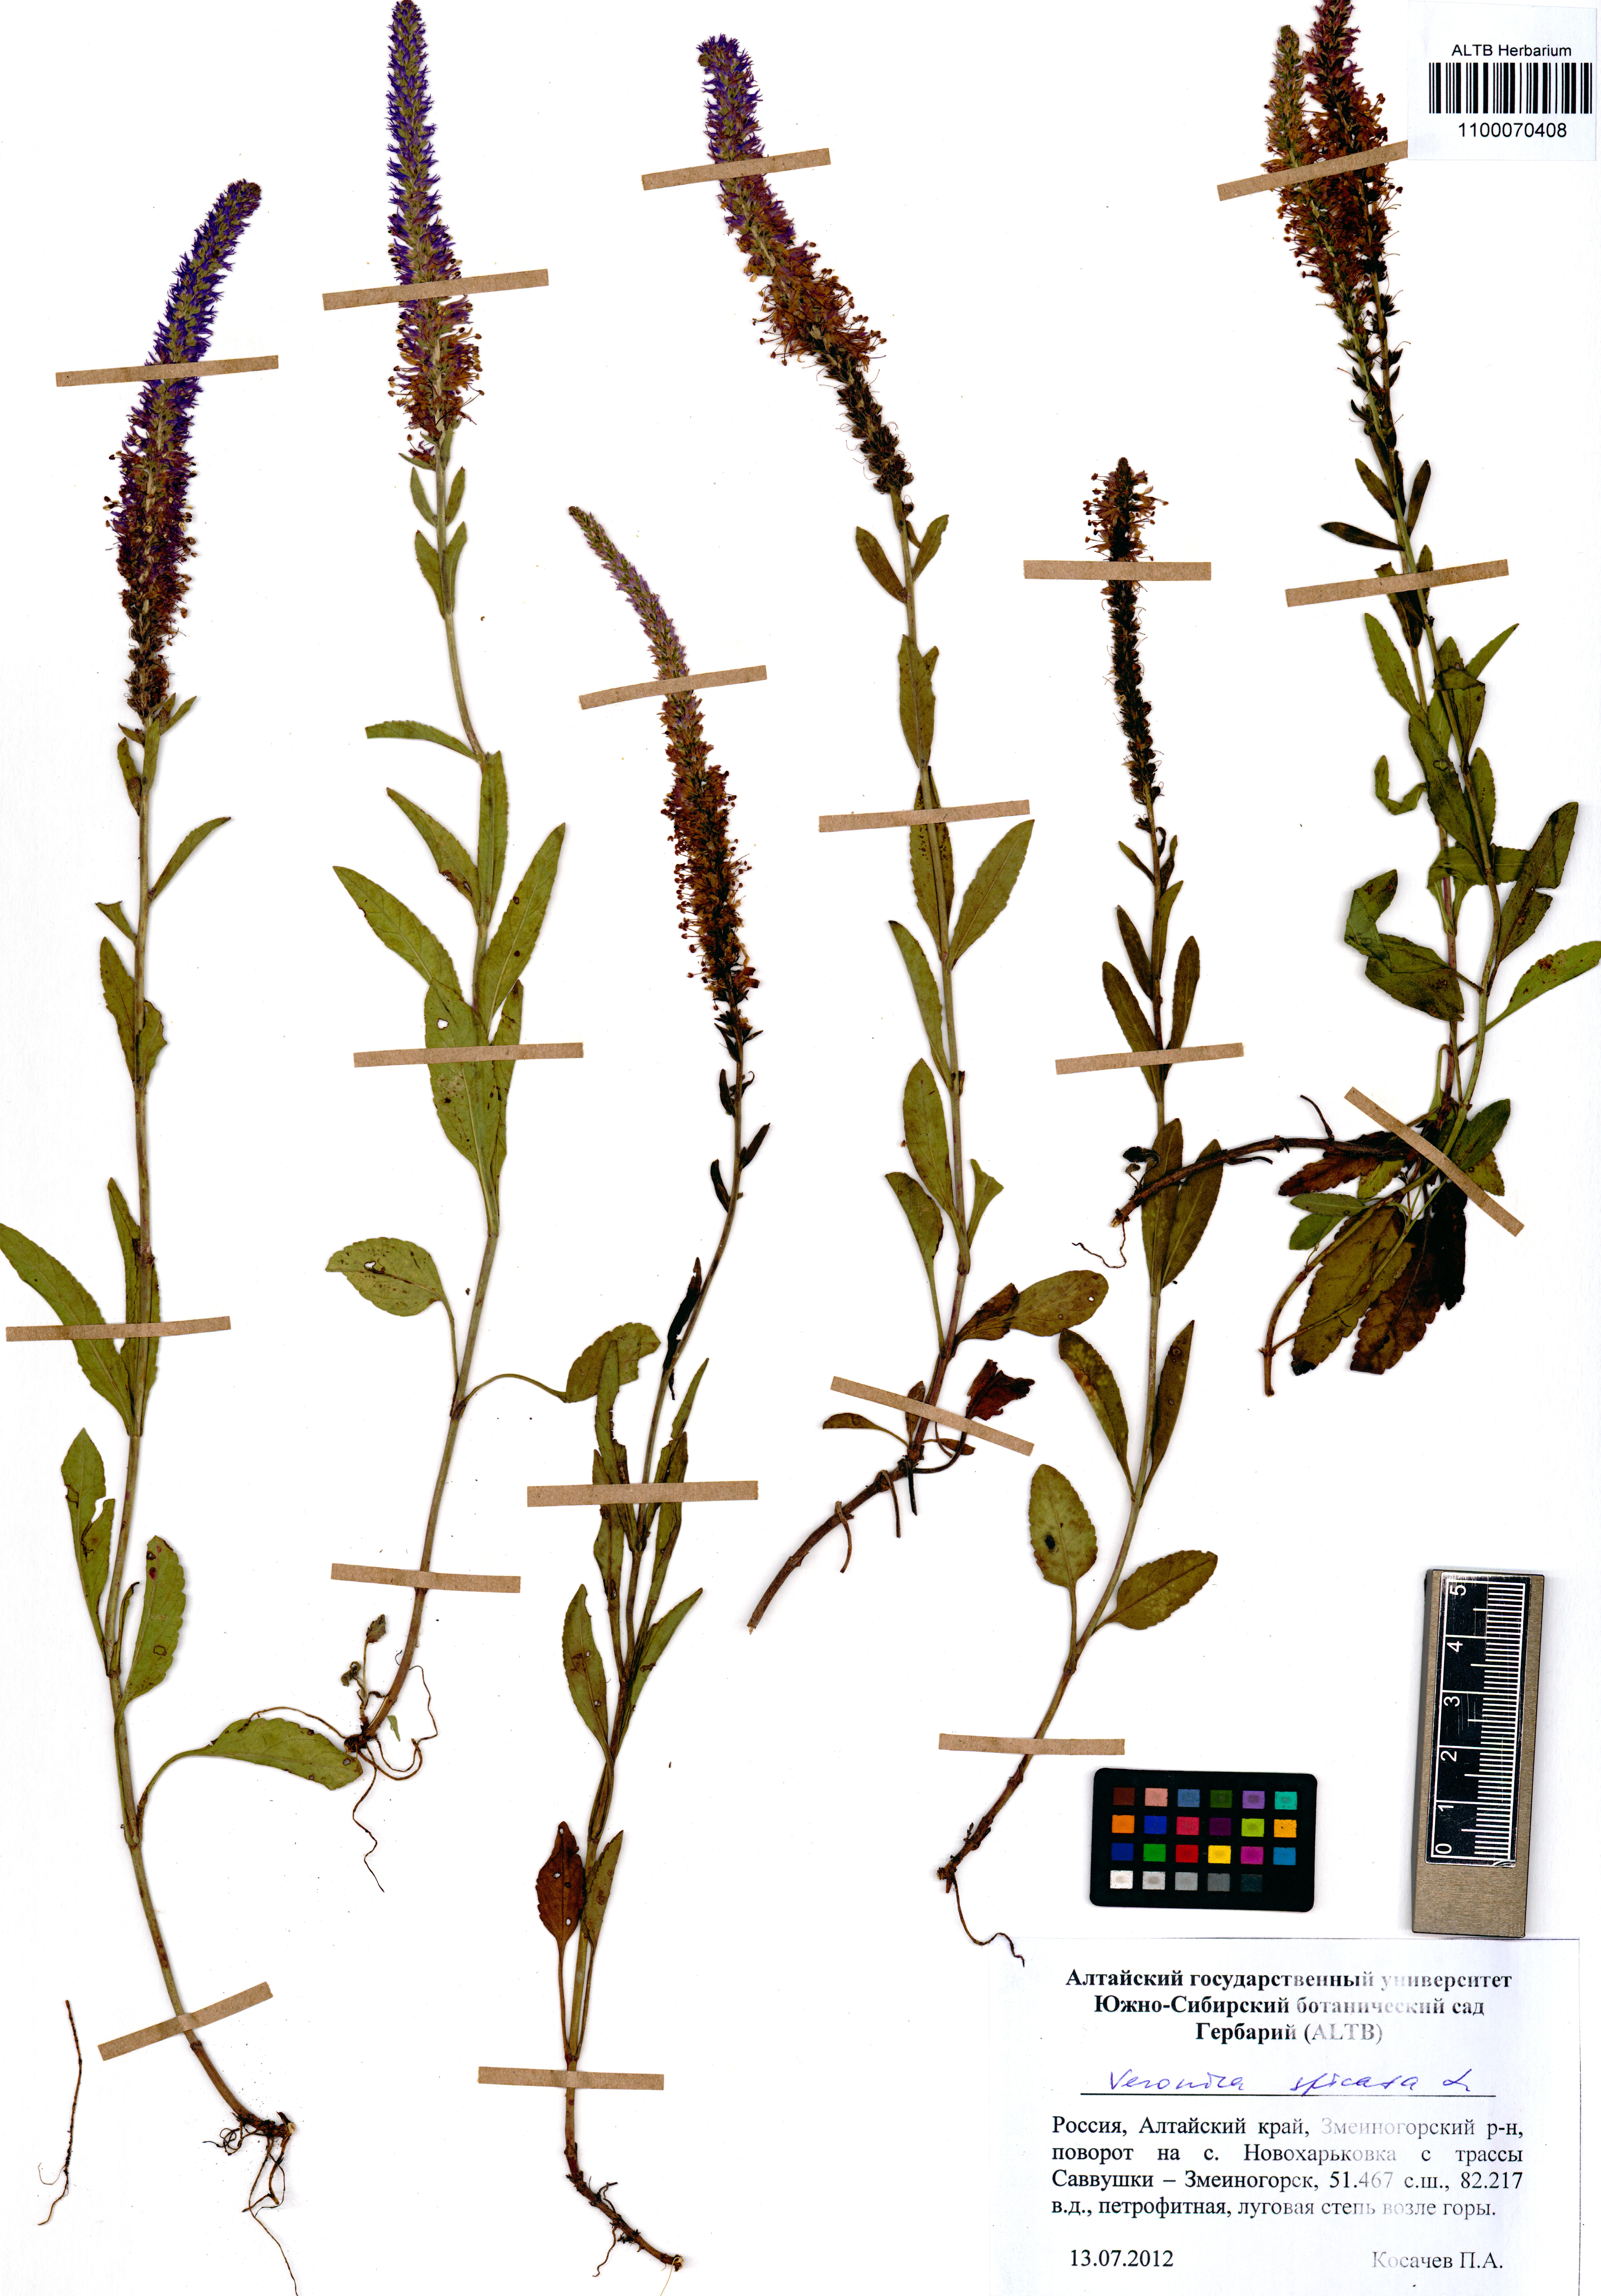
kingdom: Plantae
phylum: Tracheophyta
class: Magnoliopsida
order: Lamiales
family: Plantaginaceae
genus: Veronica
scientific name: Veronica spicata
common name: Spiked speedwell
